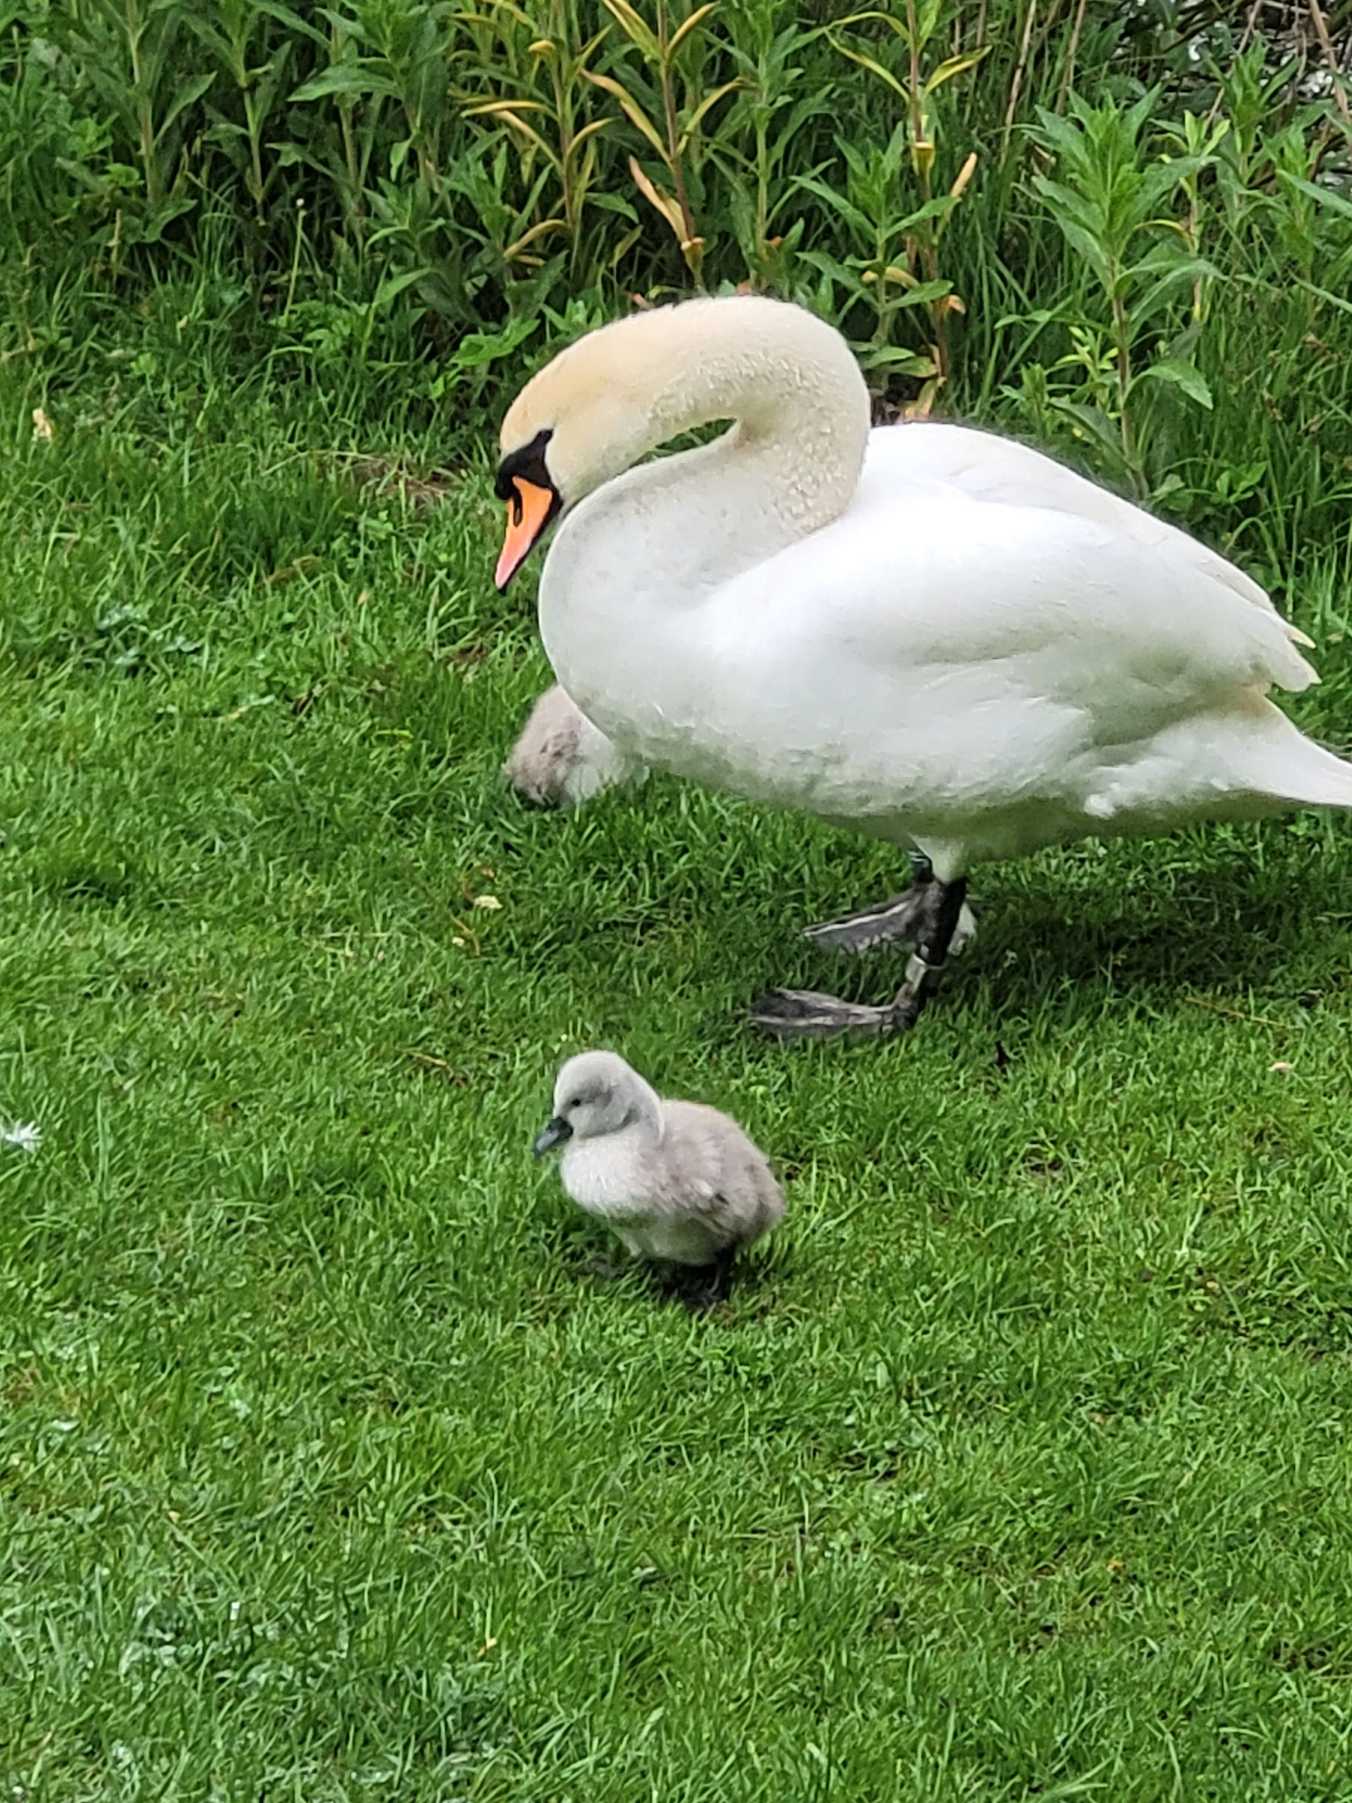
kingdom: Animalia
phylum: Chordata
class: Aves
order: Anseriformes
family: Anatidae
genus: Cygnus
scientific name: Cygnus olor
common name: Knopsvane
